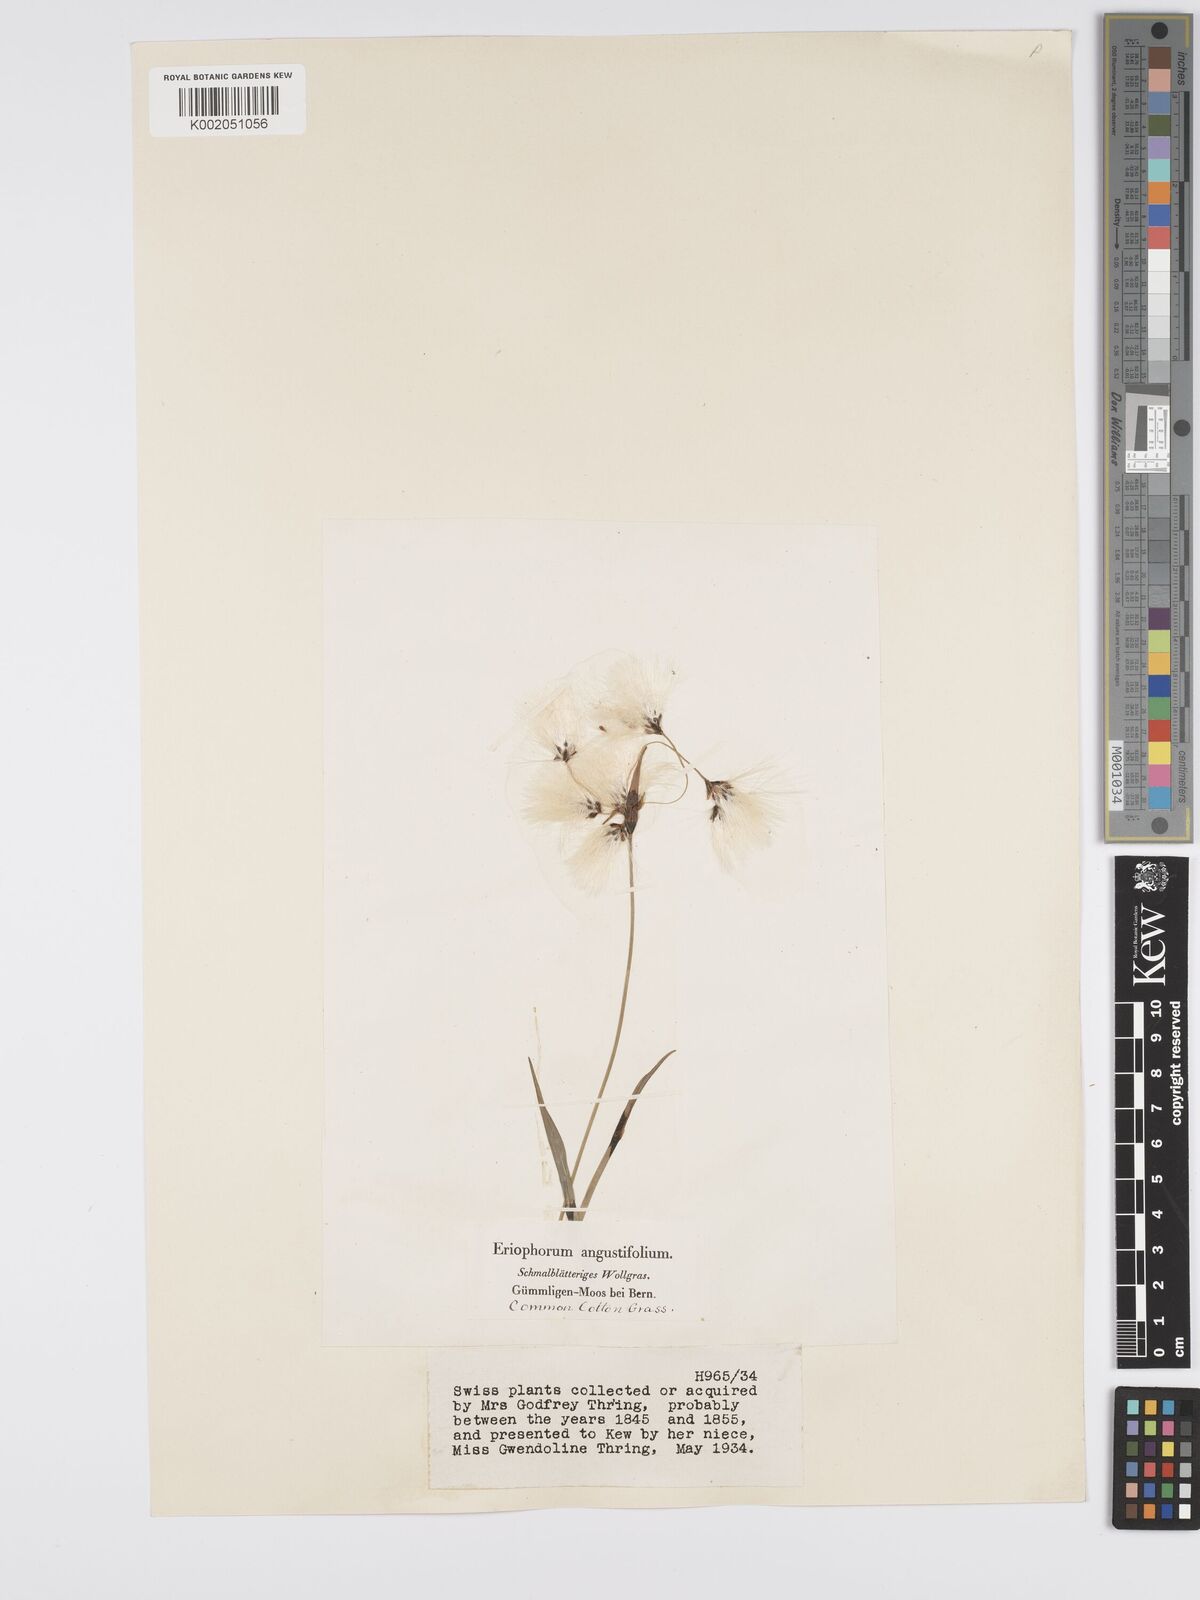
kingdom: Plantae
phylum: Tracheophyta
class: Liliopsida
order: Poales
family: Cyperaceae
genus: Eriophorum
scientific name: Eriophorum angustifolium
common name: Common cottongrass
